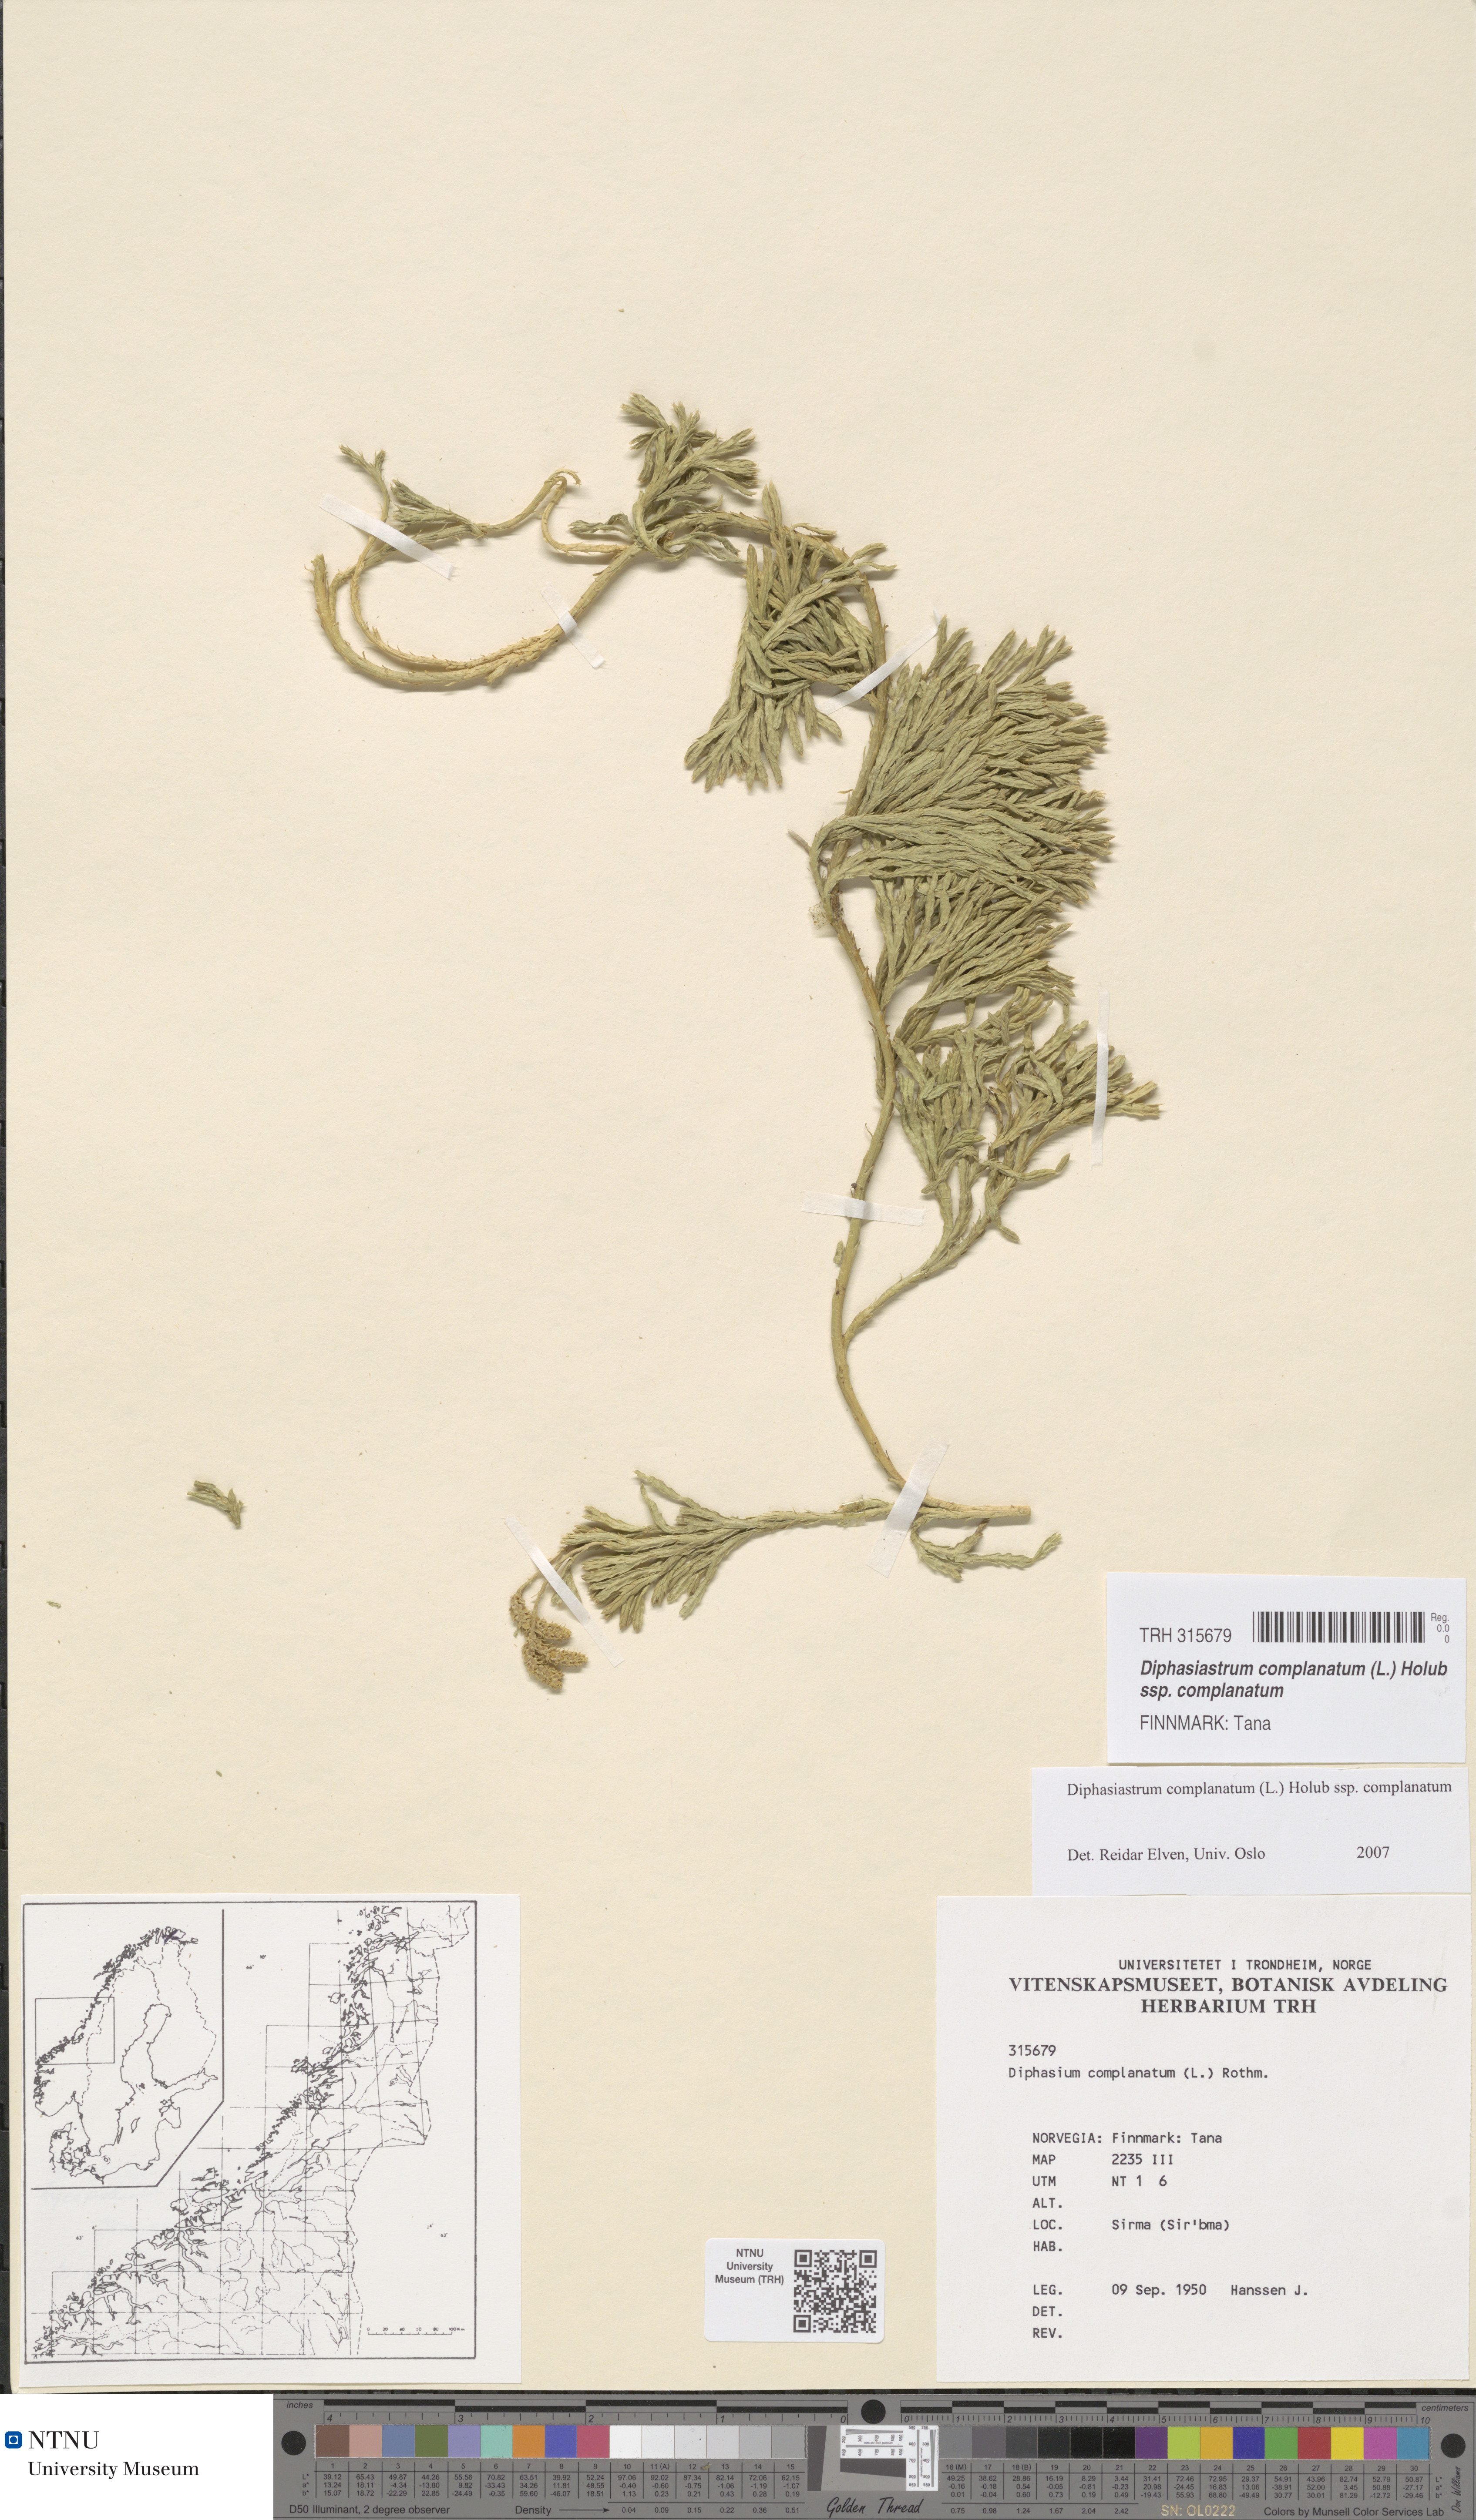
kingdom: Plantae
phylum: Tracheophyta
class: Lycopodiopsida
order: Lycopodiales
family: Lycopodiaceae
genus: Diphasiastrum
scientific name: Diphasiastrum complanatum
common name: Northern running-pine
